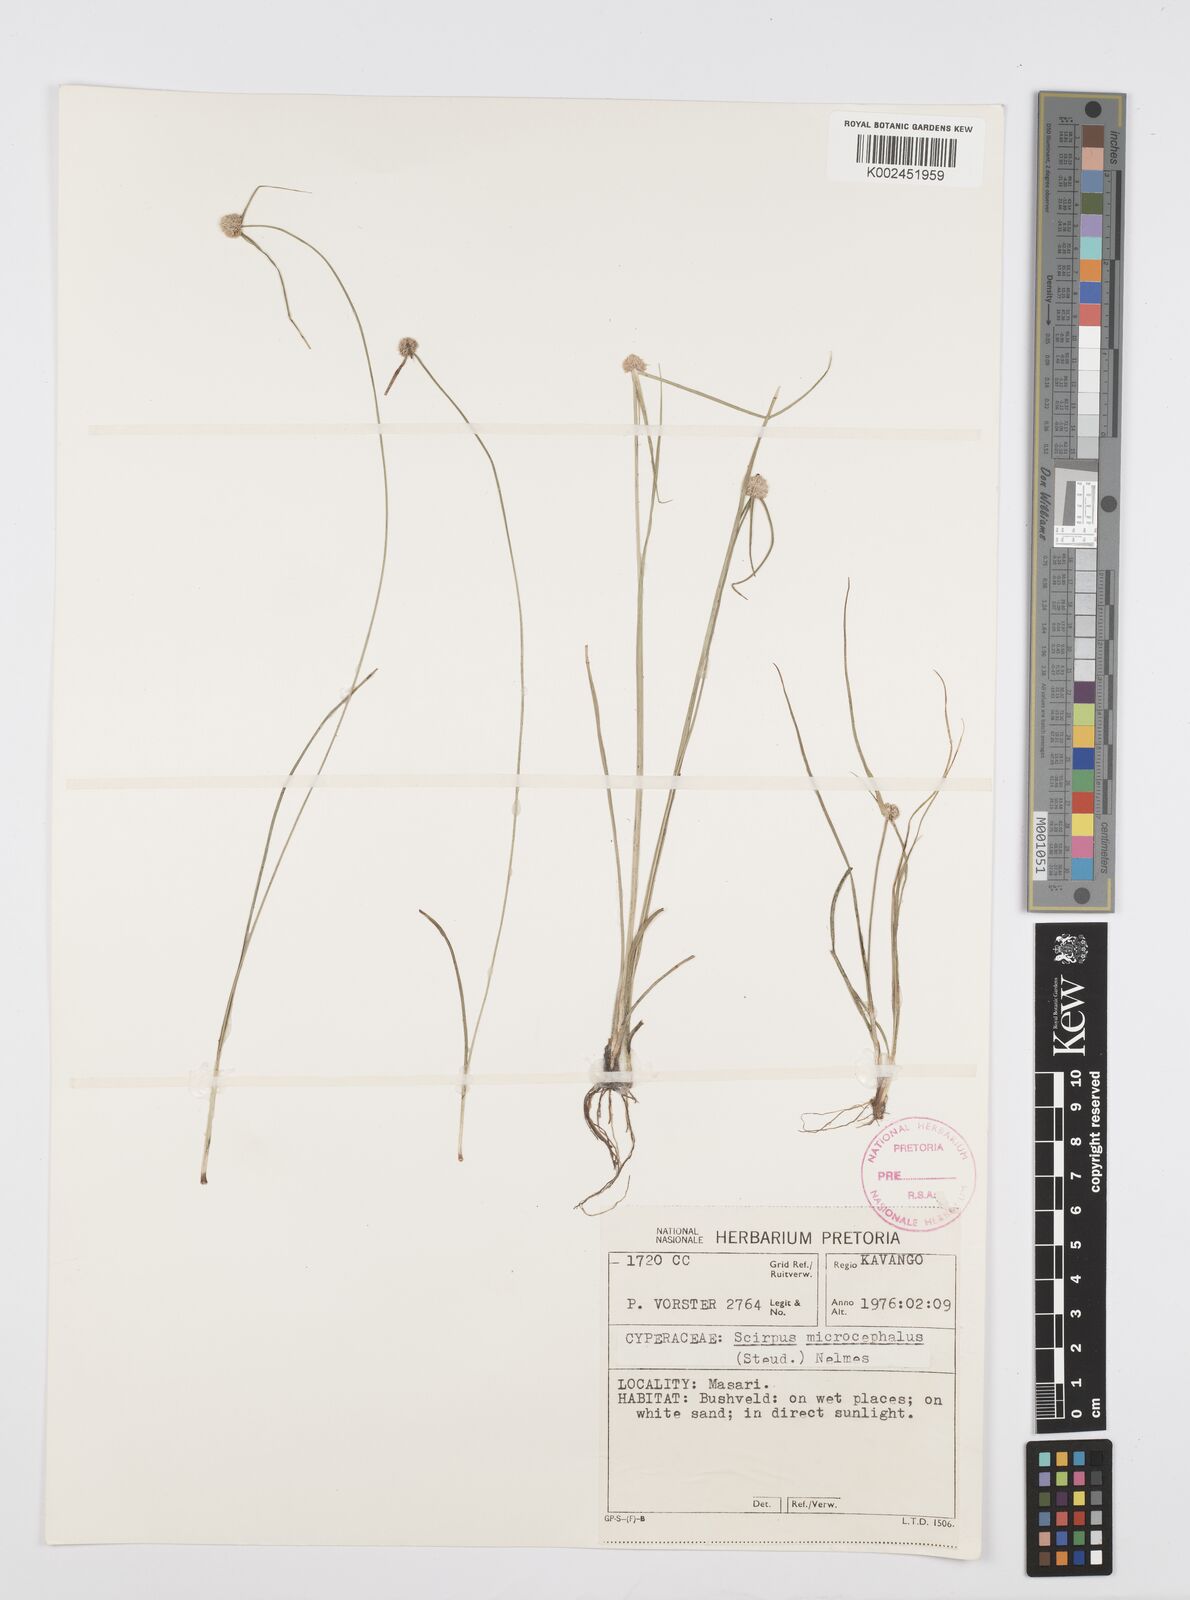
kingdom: Plantae
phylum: Tracheophyta
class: Liliopsida
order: Poales
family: Cyperaceae
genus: Cyperus
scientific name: Cyperus microcephalus
